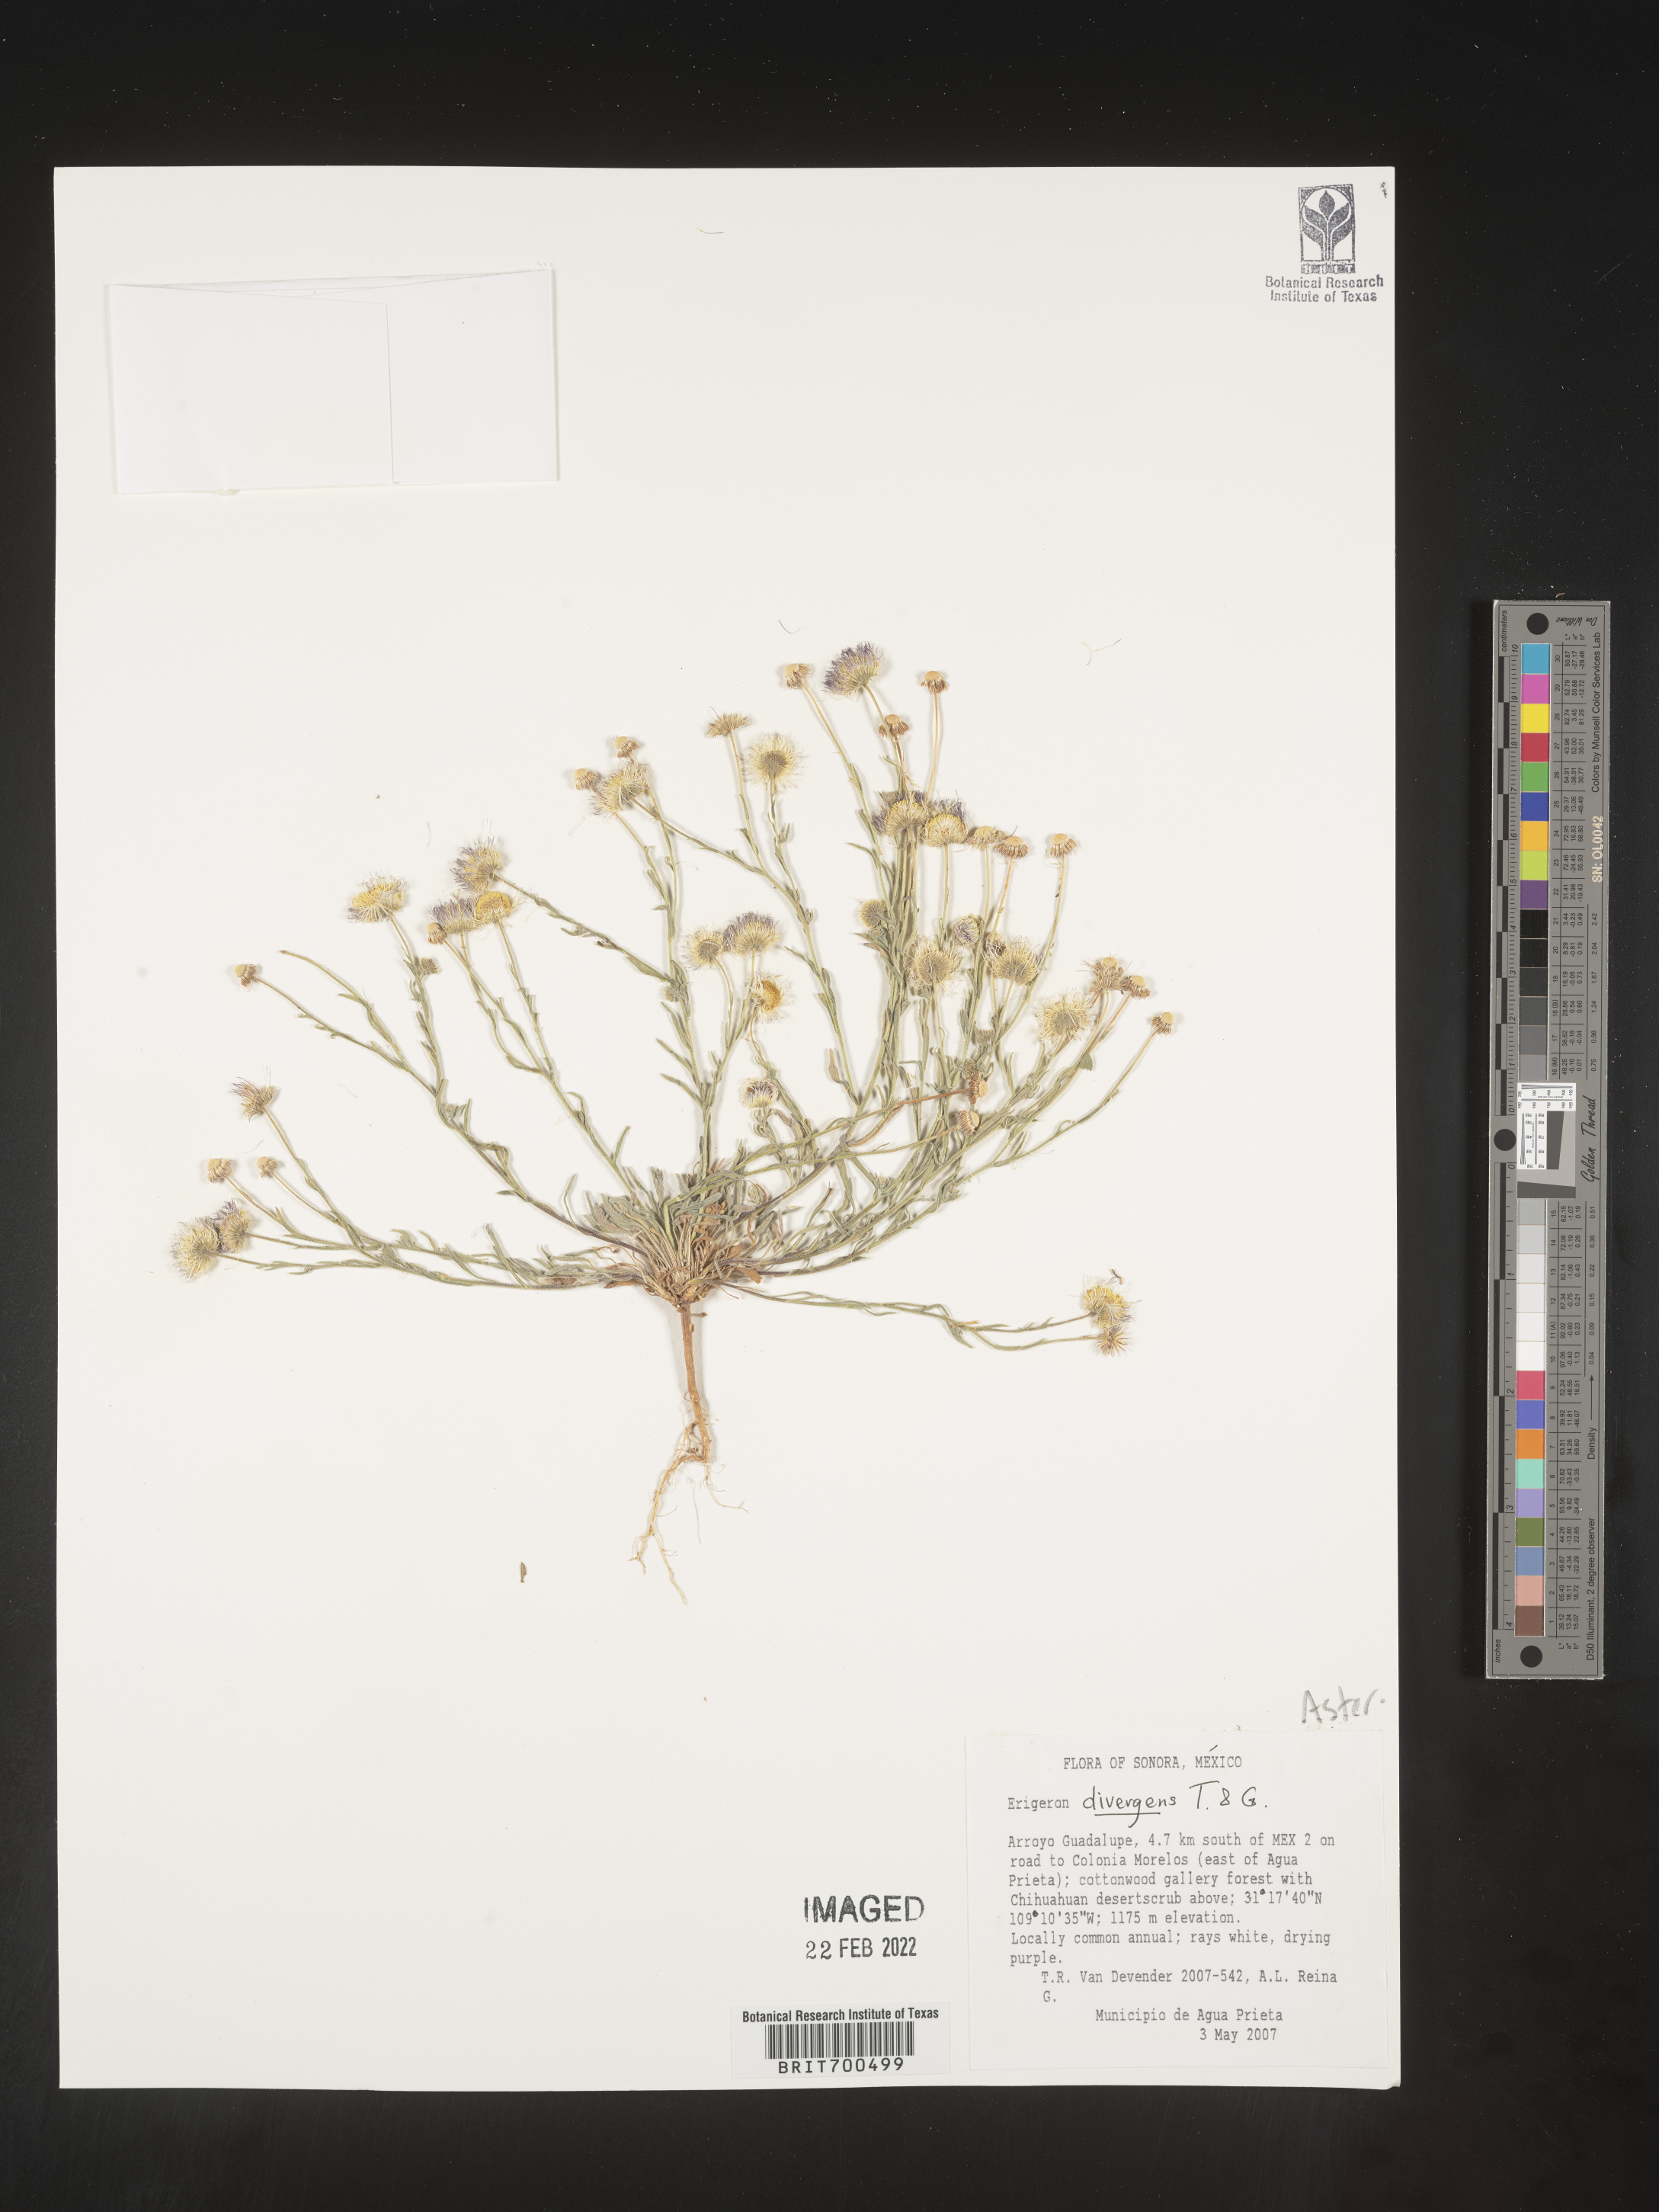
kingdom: Plantae
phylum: Tracheophyta
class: Magnoliopsida
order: Asterales
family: Asteraceae
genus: Erigeron
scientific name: Erigeron
